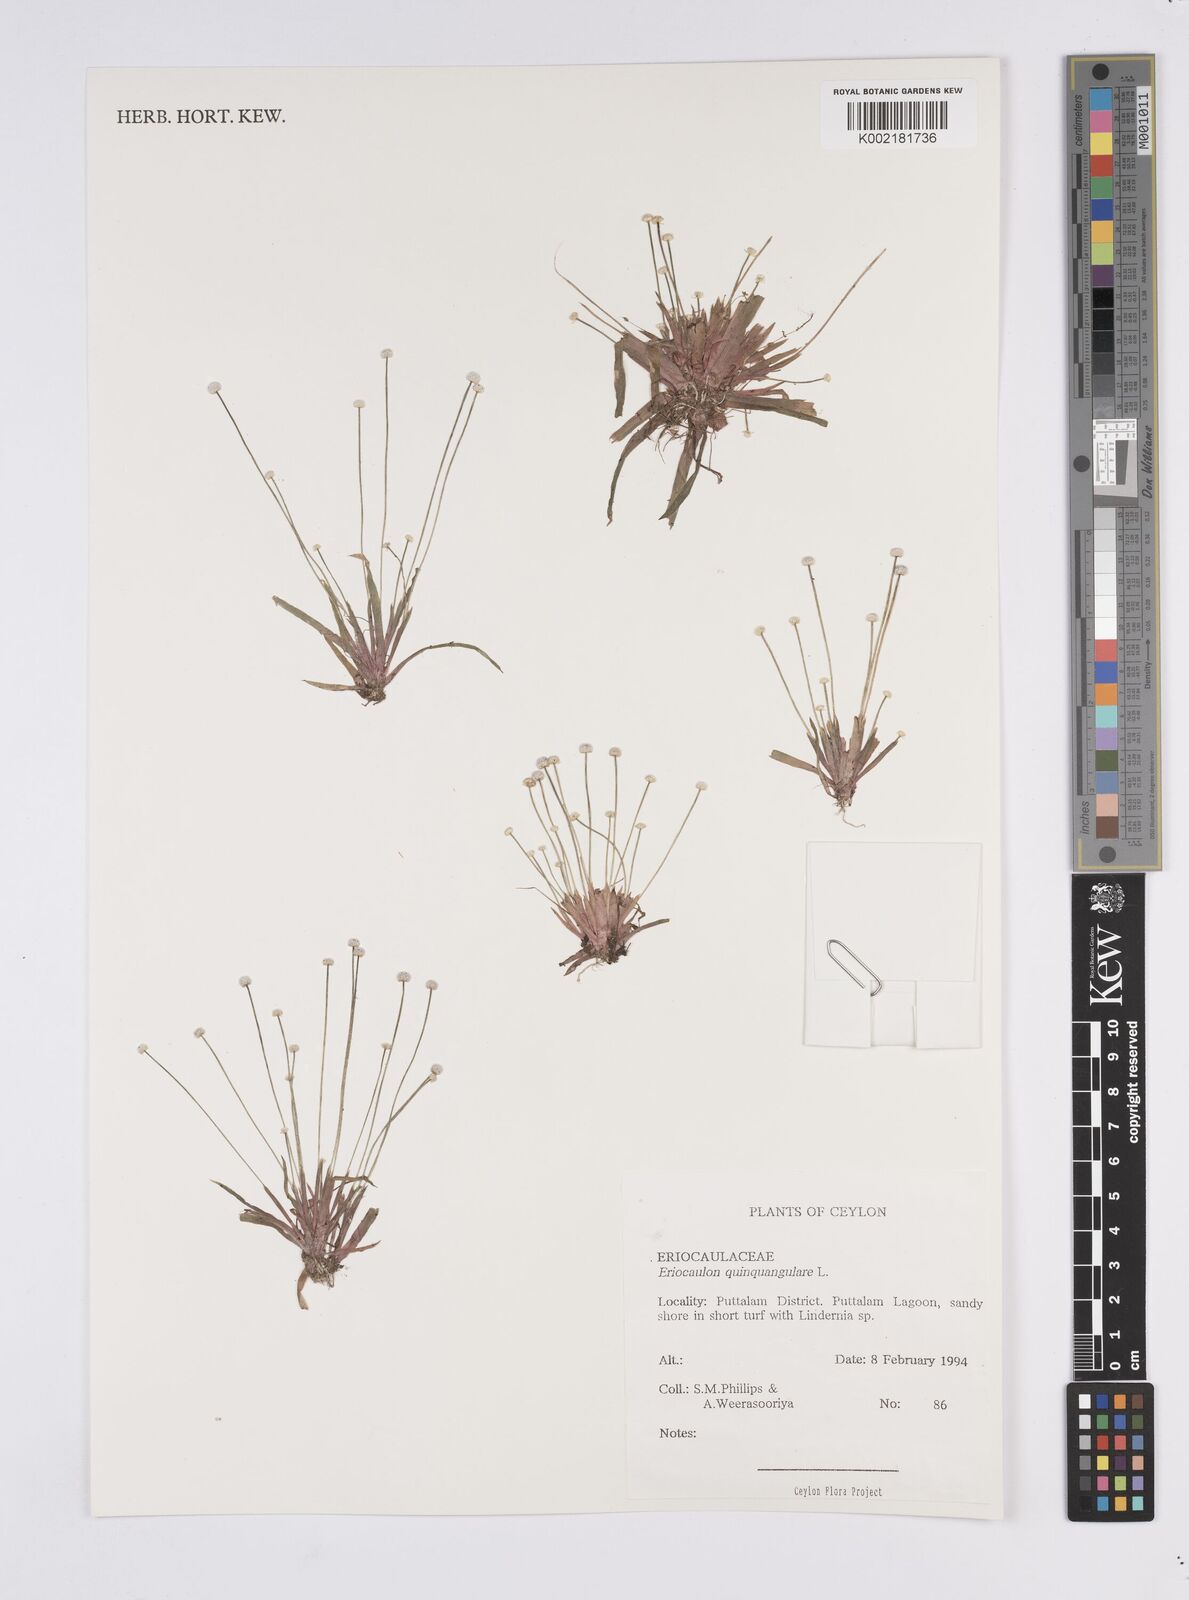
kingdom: Plantae
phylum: Tracheophyta
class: Liliopsida
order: Poales
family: Eriocaulaceae
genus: Eriocaulon
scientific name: Eriocaulon quinquangulare
